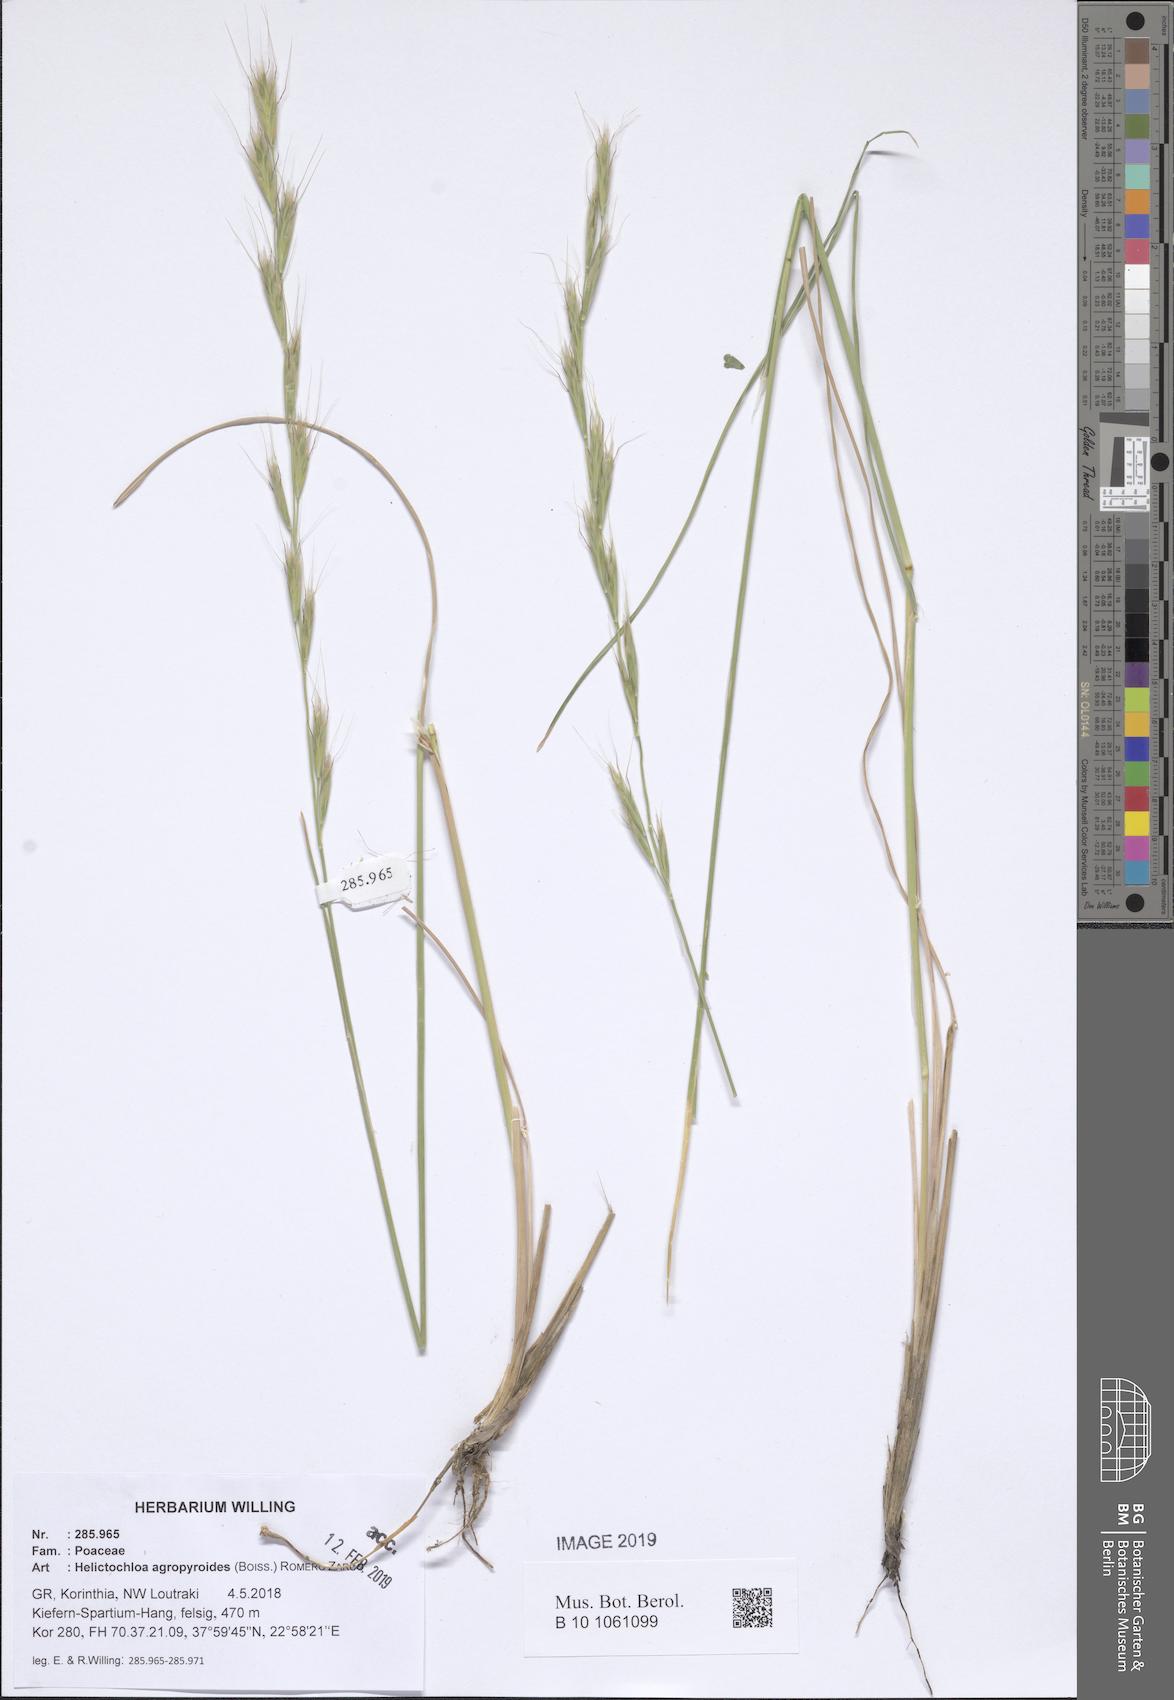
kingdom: Plantae
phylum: Tracheophyta
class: Liliopsida
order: Poales
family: Poaceae
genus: Helictochloa
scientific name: Helictochloa agropyroides
